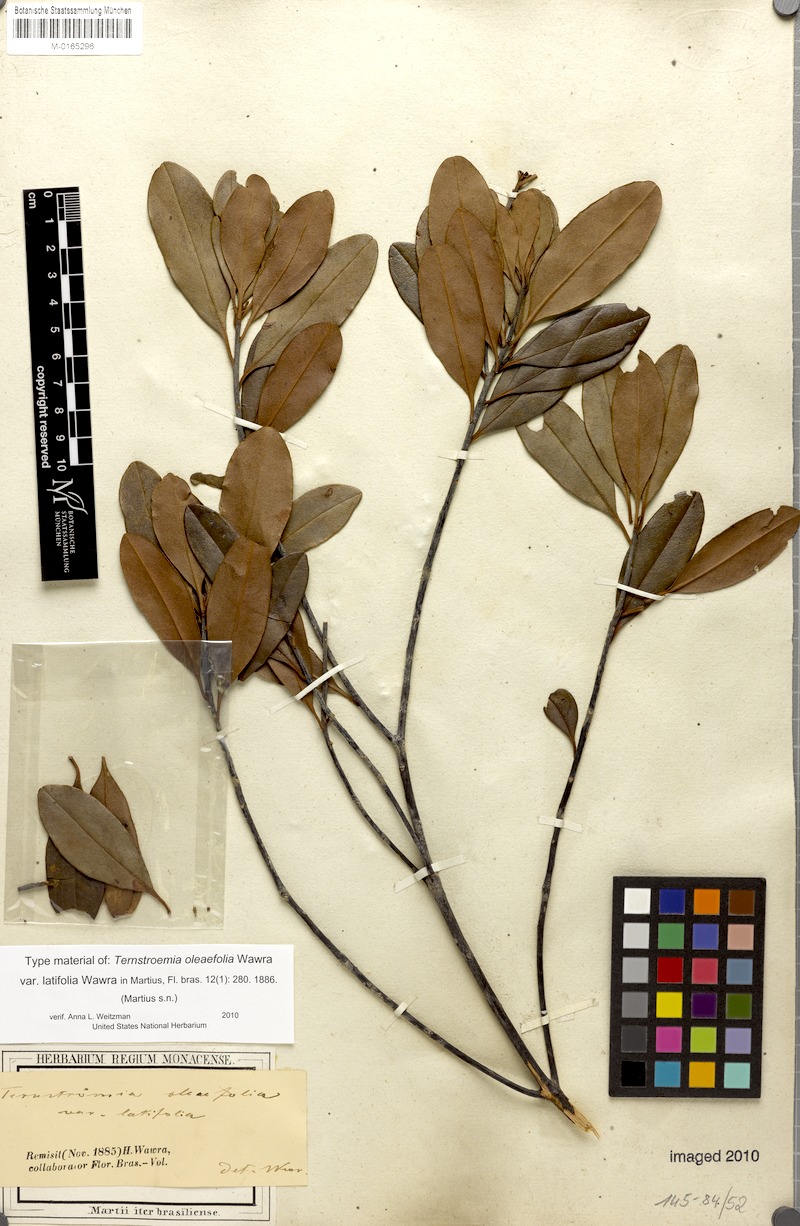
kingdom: Plantae
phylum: Tracheophyta
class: Magnoliopsida
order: Ericales
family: Pentaphylacaceae
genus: Ternstroemia
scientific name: Ternstroemia oleifolia
